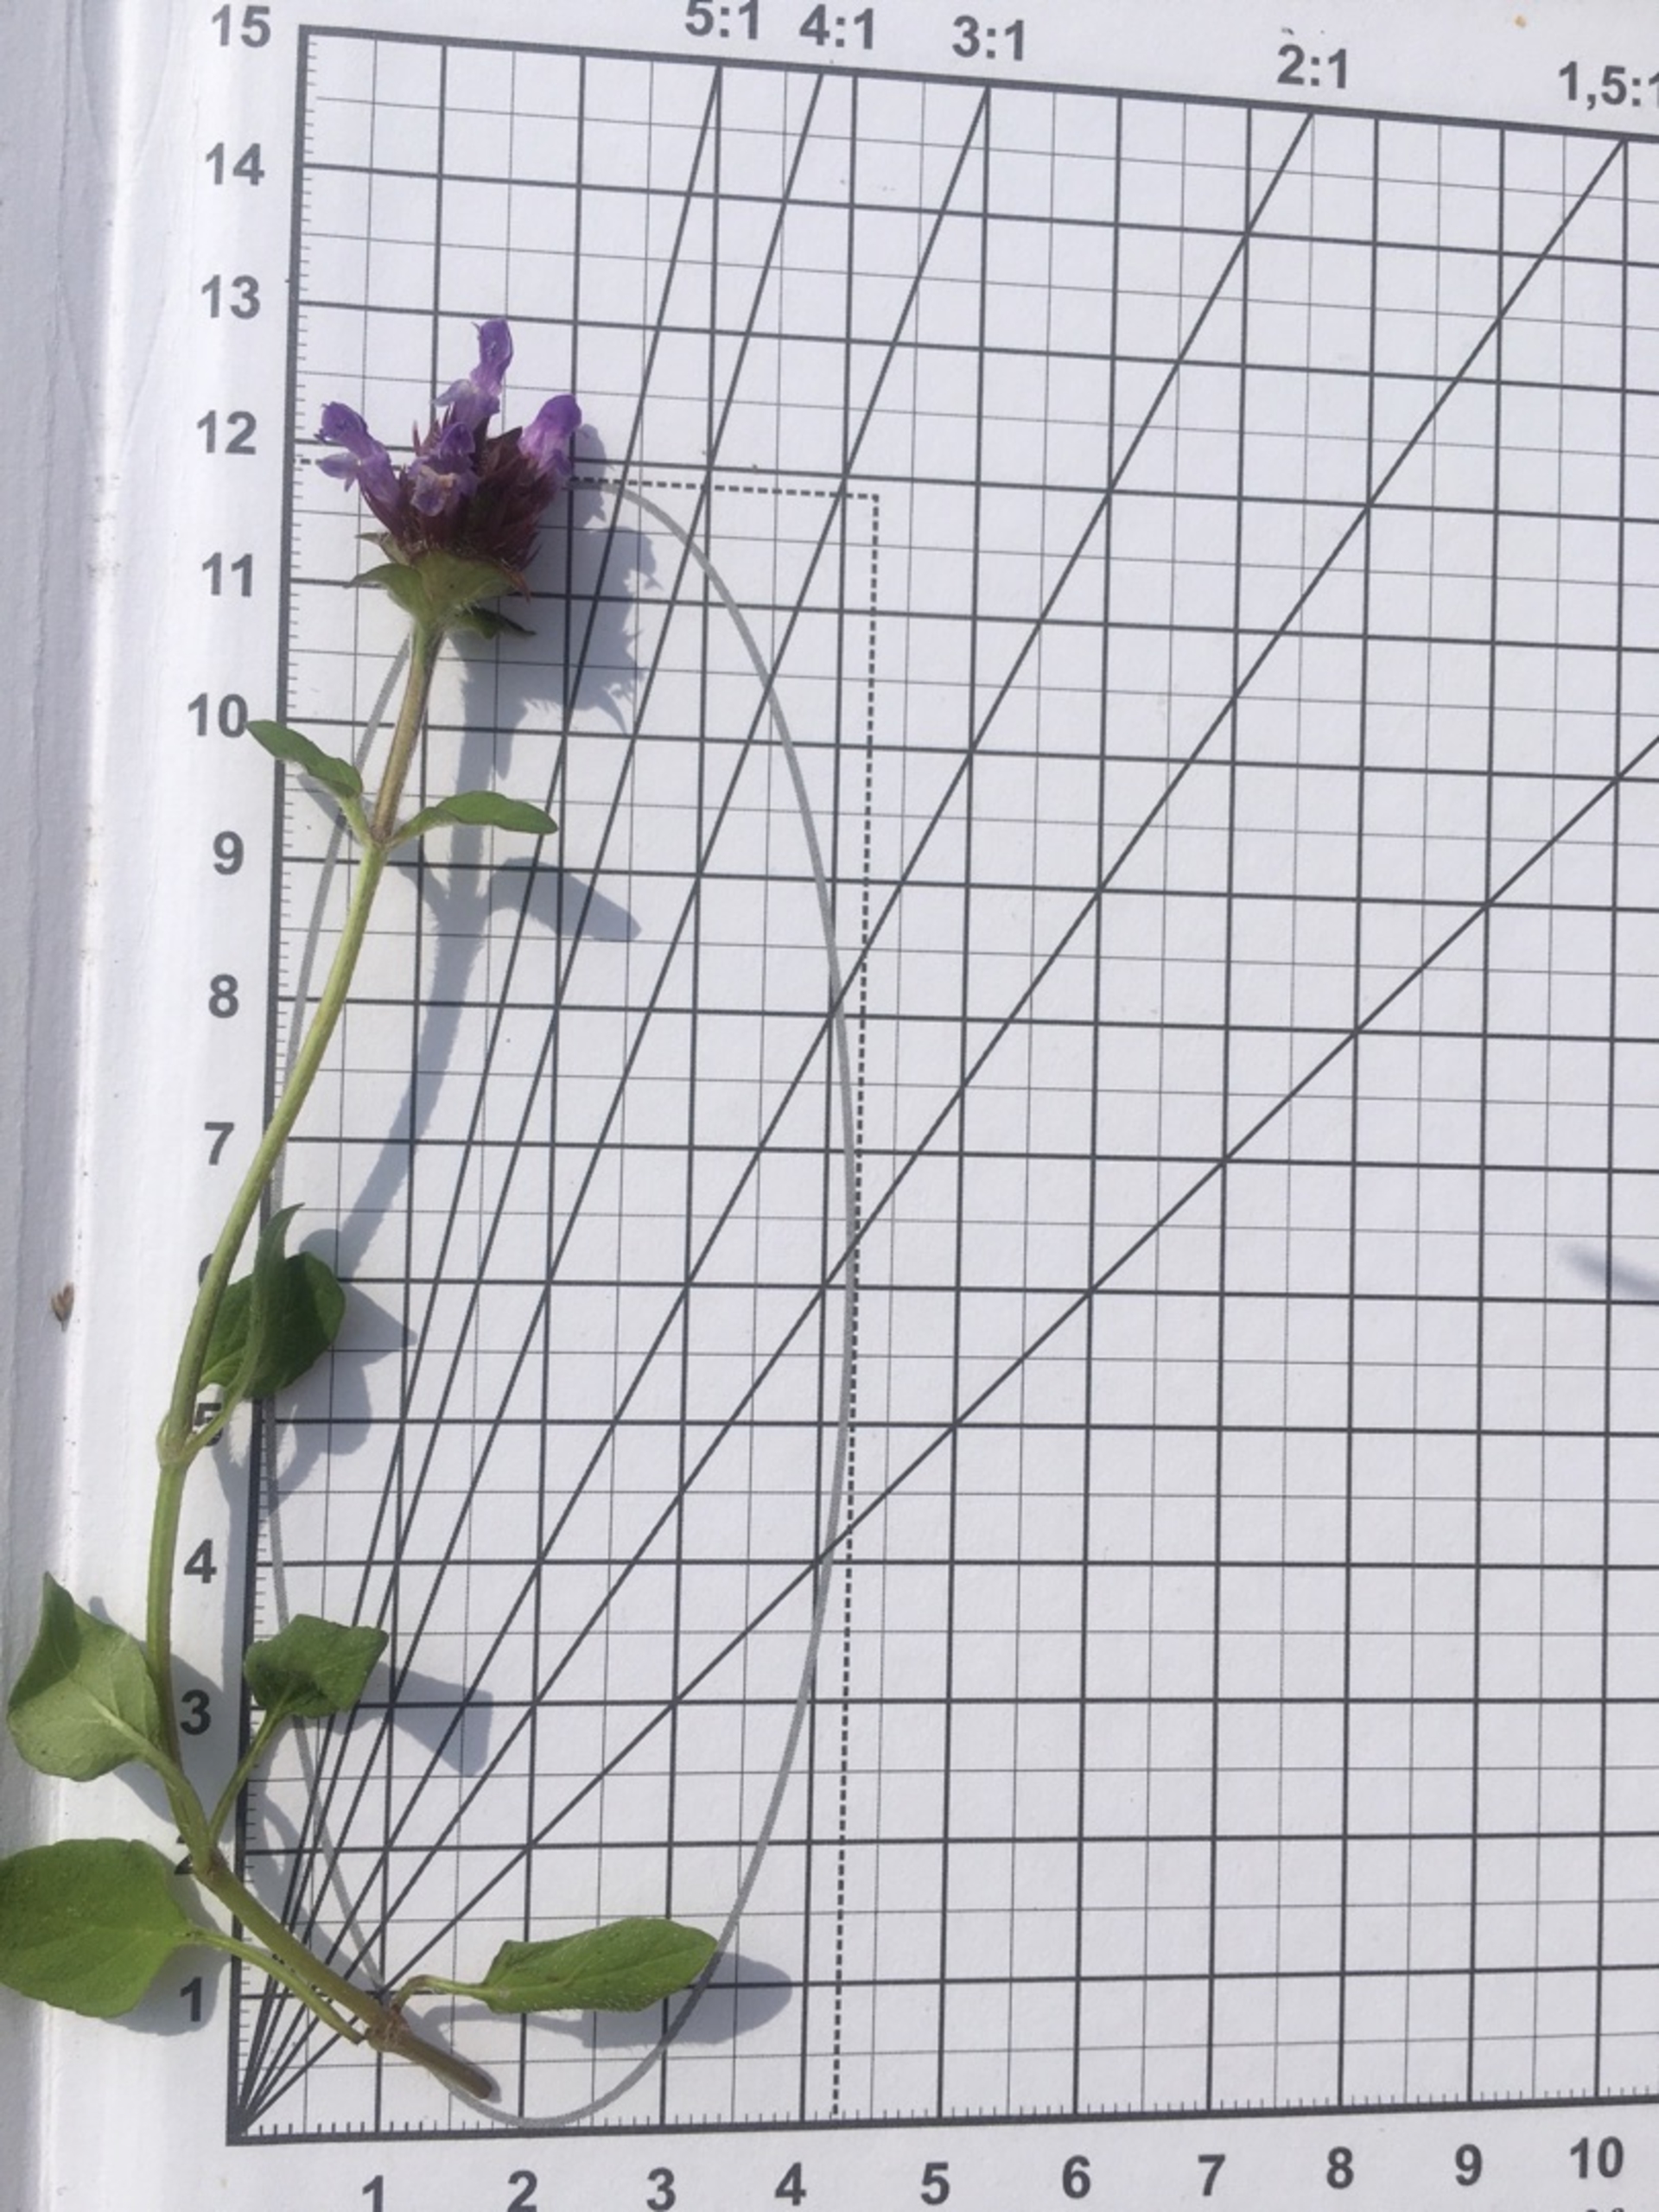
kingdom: Plantae
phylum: Tracheophyta
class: Magnoliopsida
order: Lamiales
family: Lamiaceae
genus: Prunella
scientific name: Prunella vulgaris
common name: Almindelig brunelle
